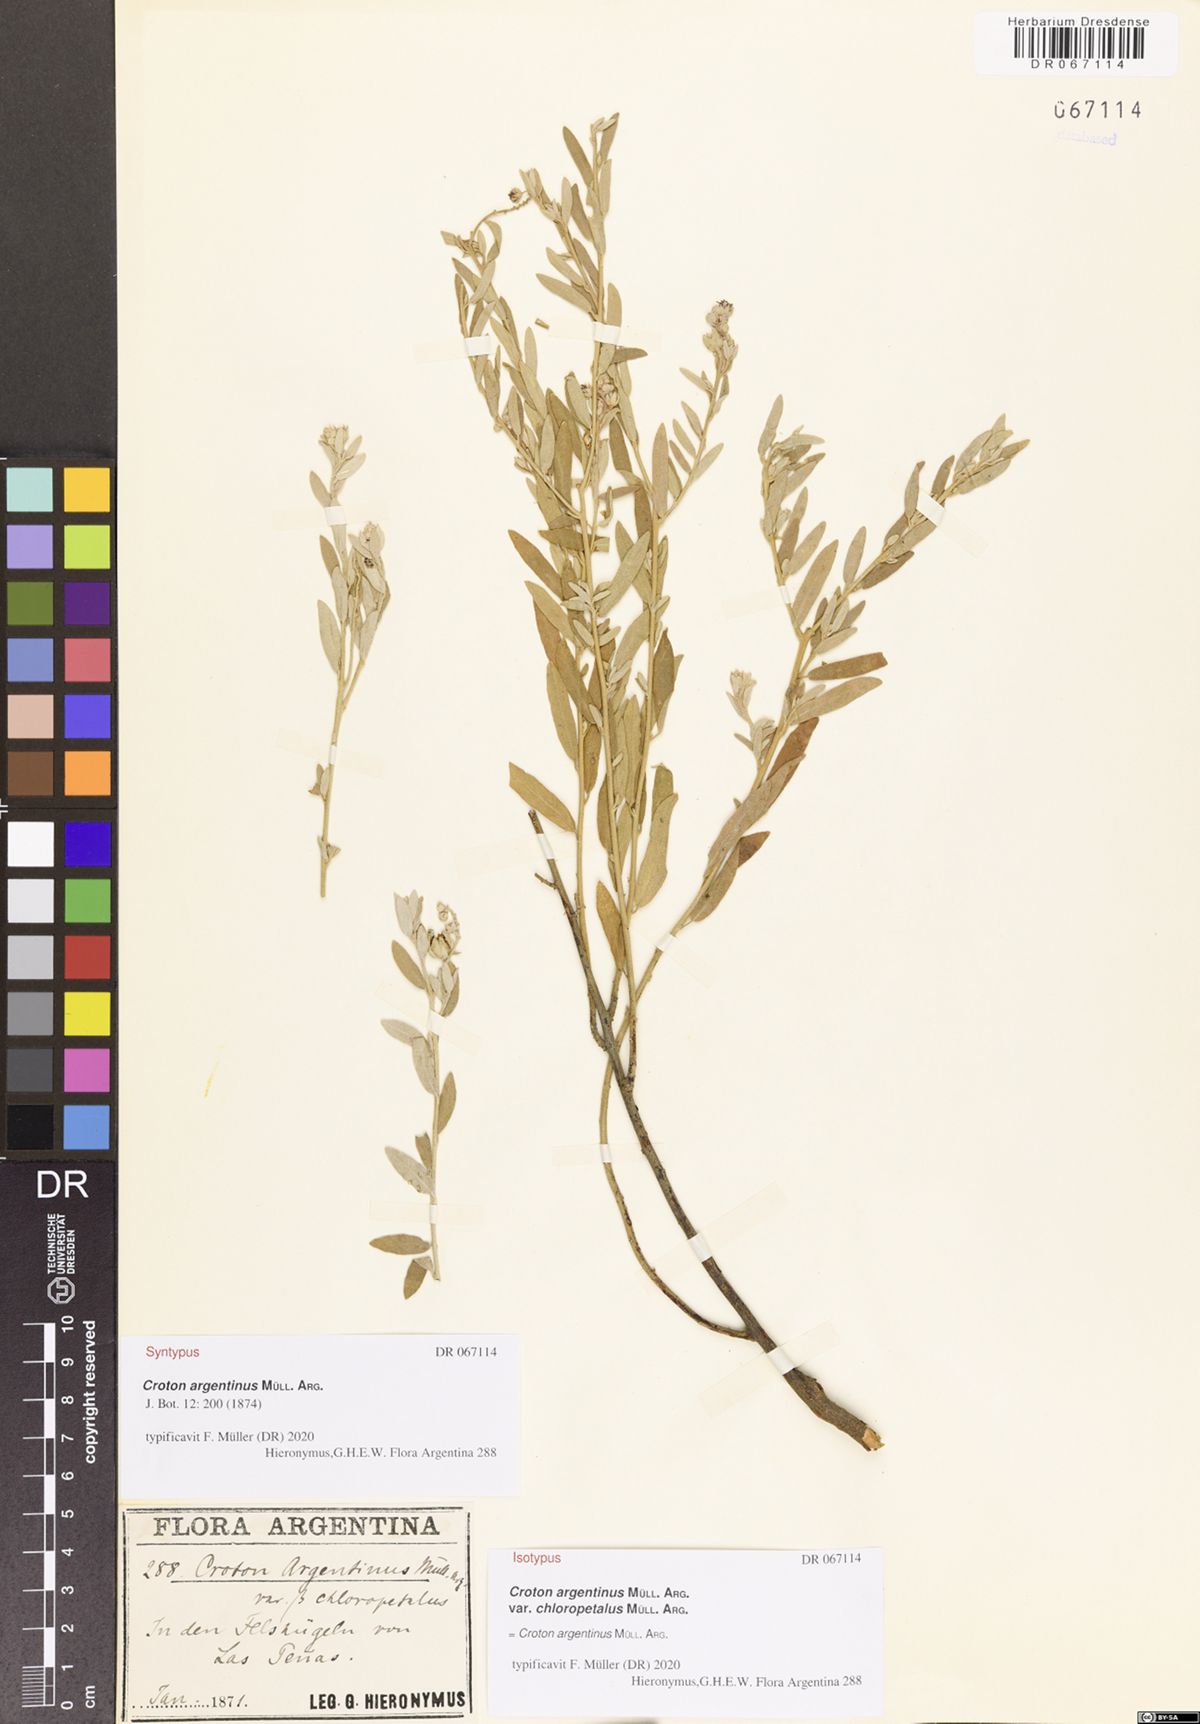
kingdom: Plantae
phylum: Tracheophyta
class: Magnoliopsida
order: Malpighiales
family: Euphorbiaceae
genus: Croton
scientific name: Croton argentinus
